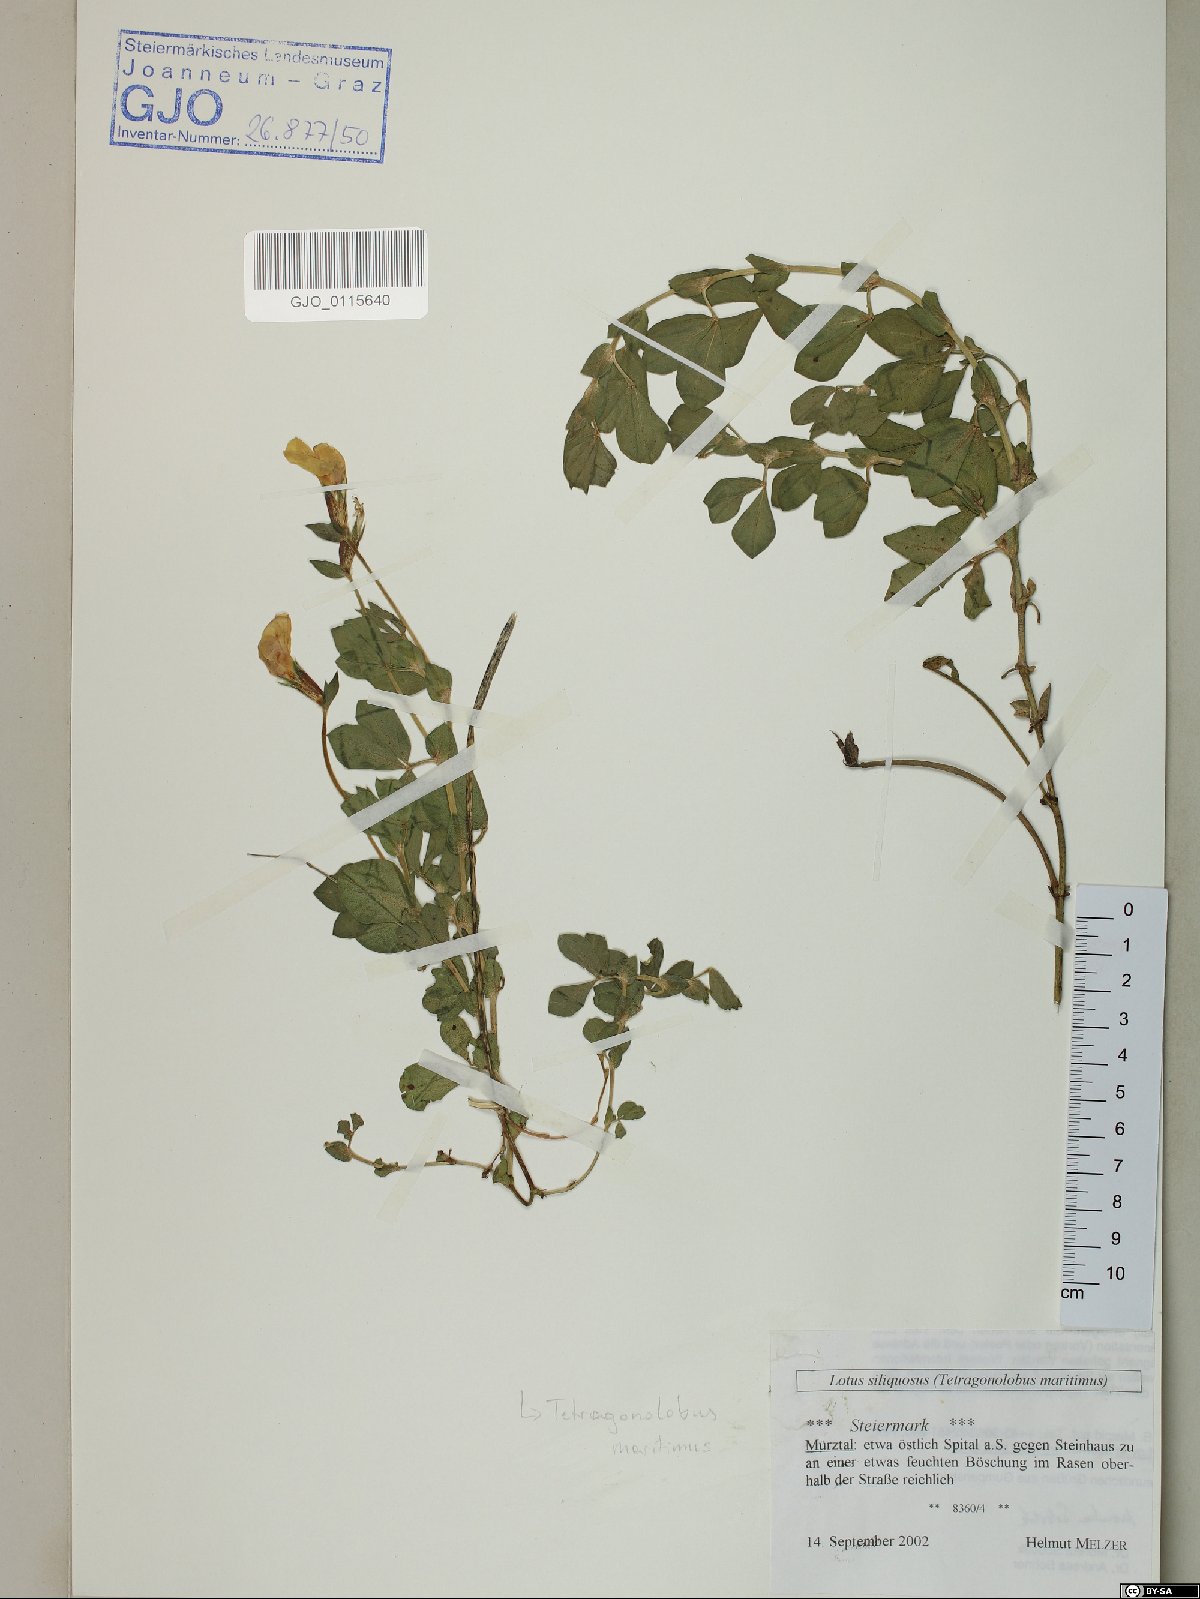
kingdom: Plantae
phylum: Tracheophyta
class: Magnoliopsida
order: Fabales
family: Fabaceae
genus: Lathyrus
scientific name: Lathyrus inconspicuus
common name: Inconspicuous pea
